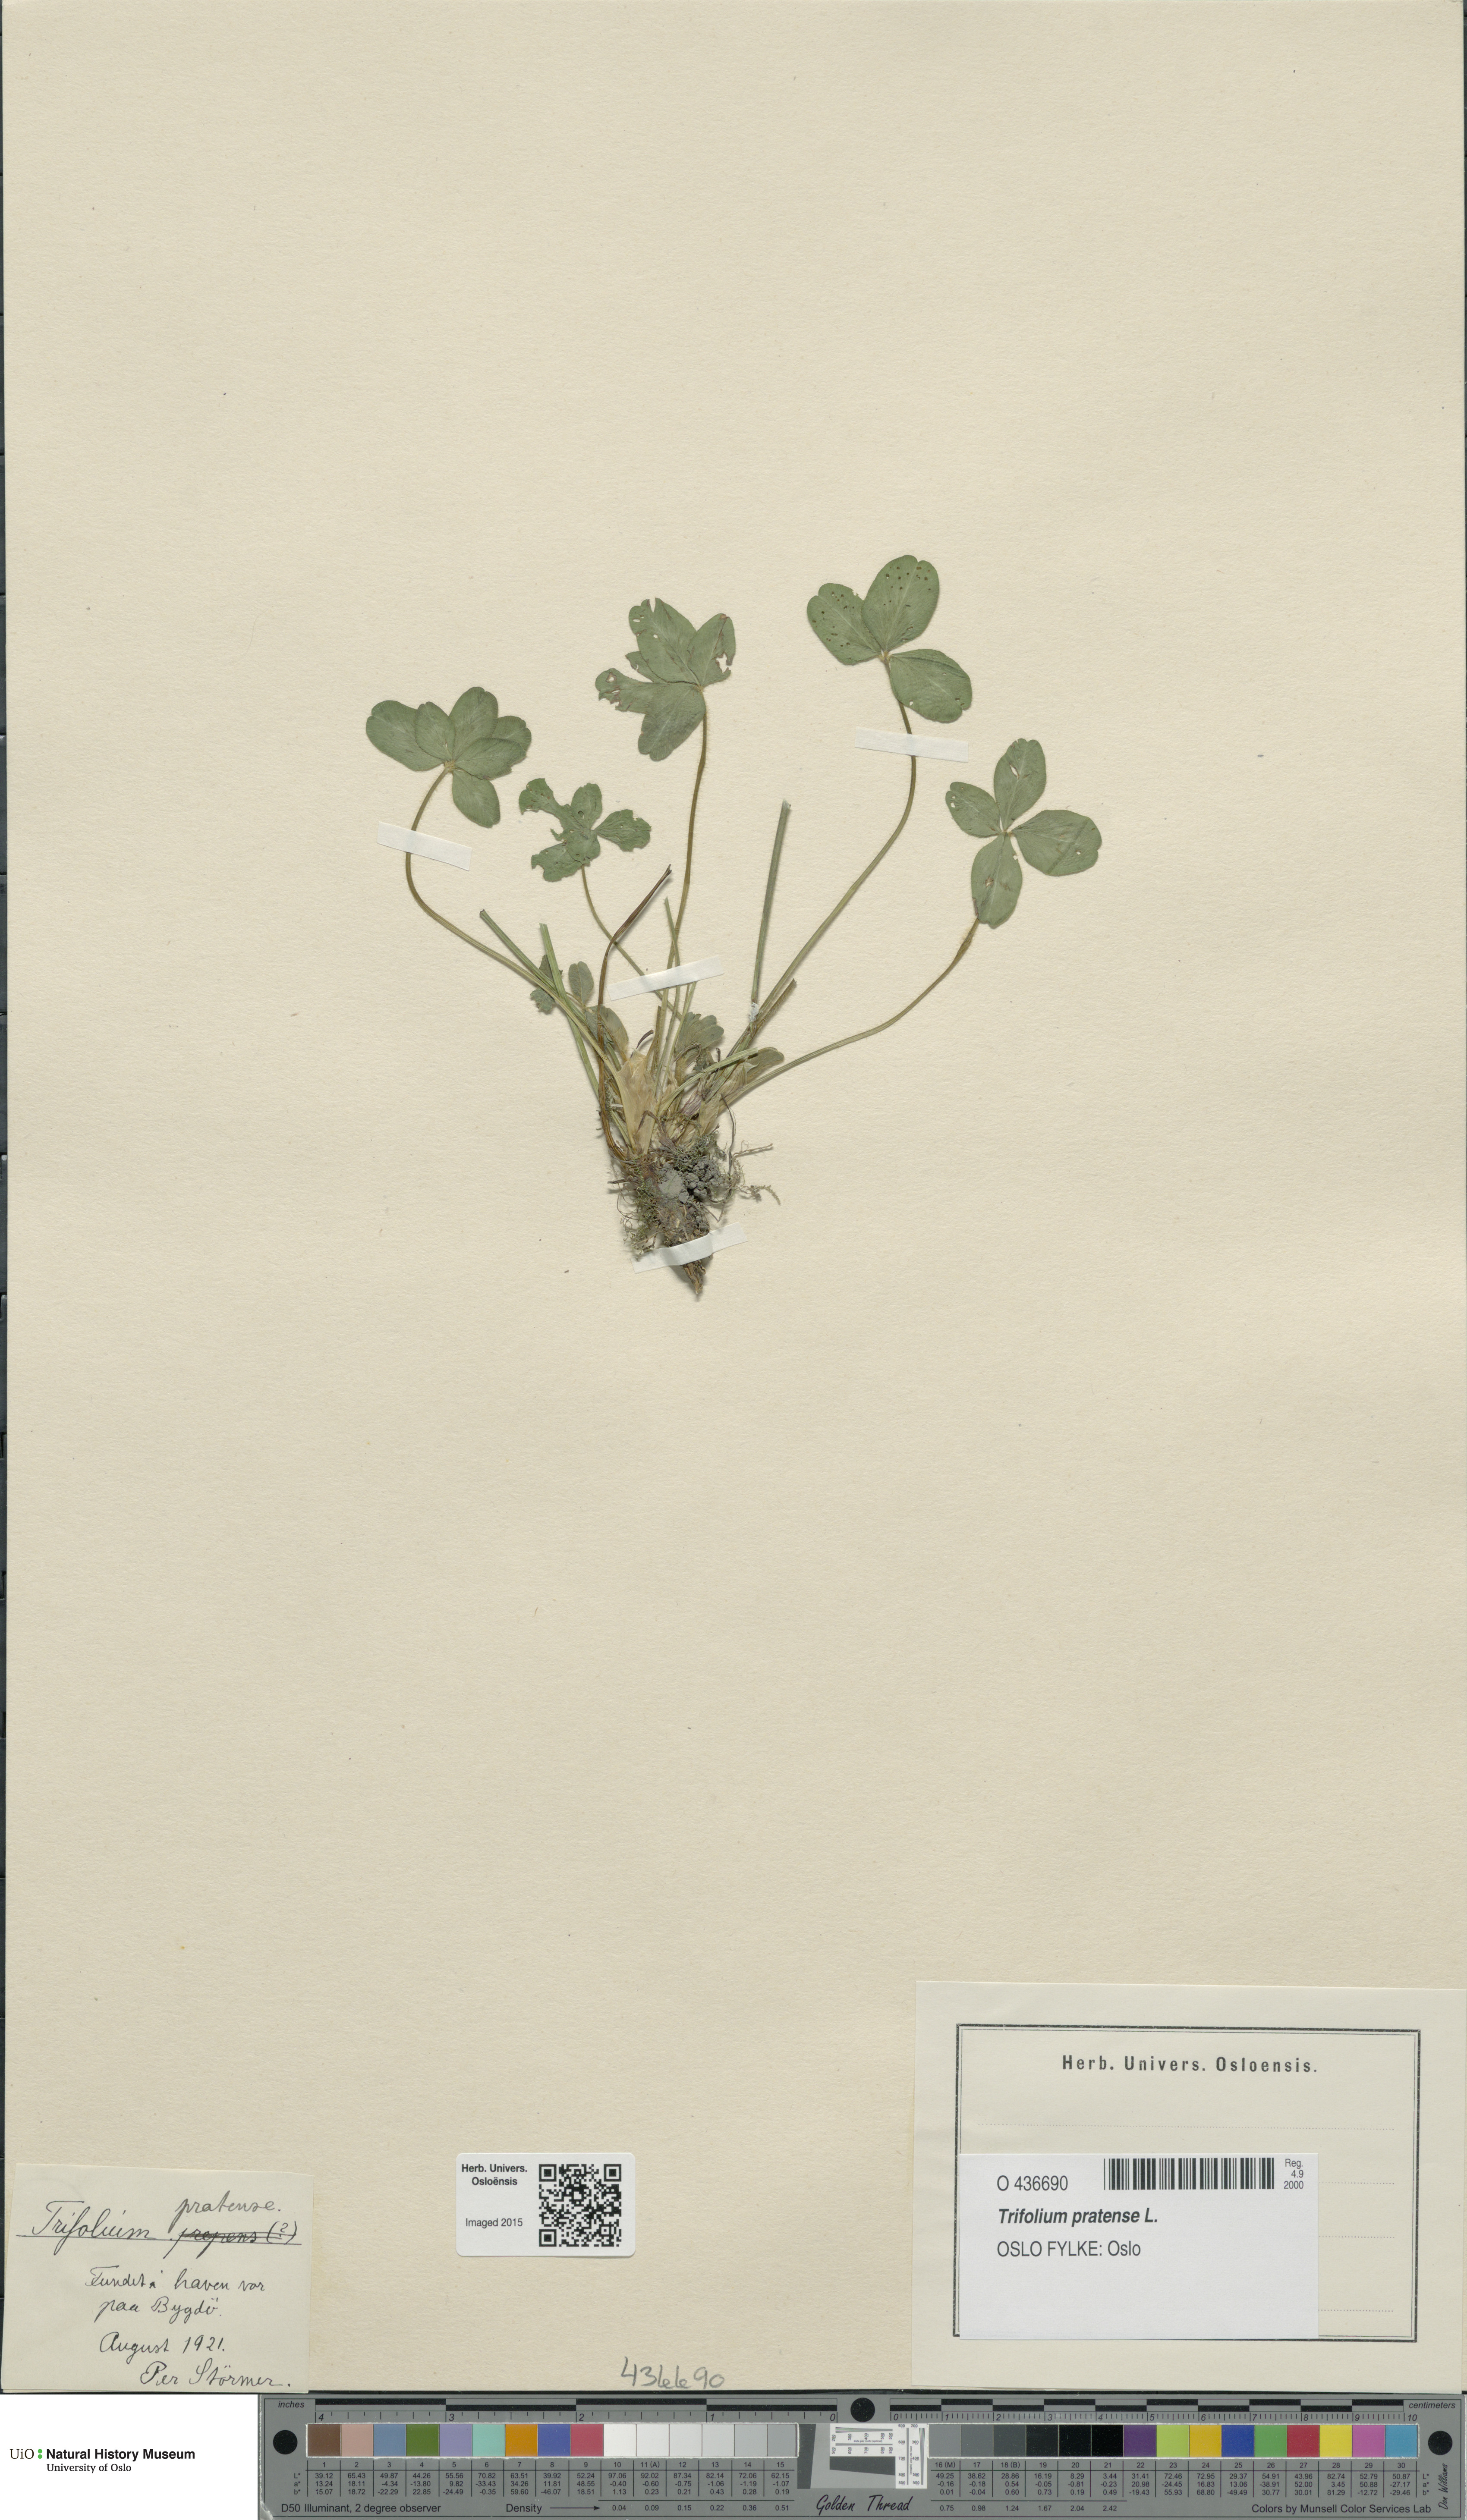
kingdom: Plantae
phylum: Tracheophyta
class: Magnoliopsida
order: Fabales
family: Fabaceae
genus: Trifolium
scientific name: Trifolium pratense
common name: Red clover
